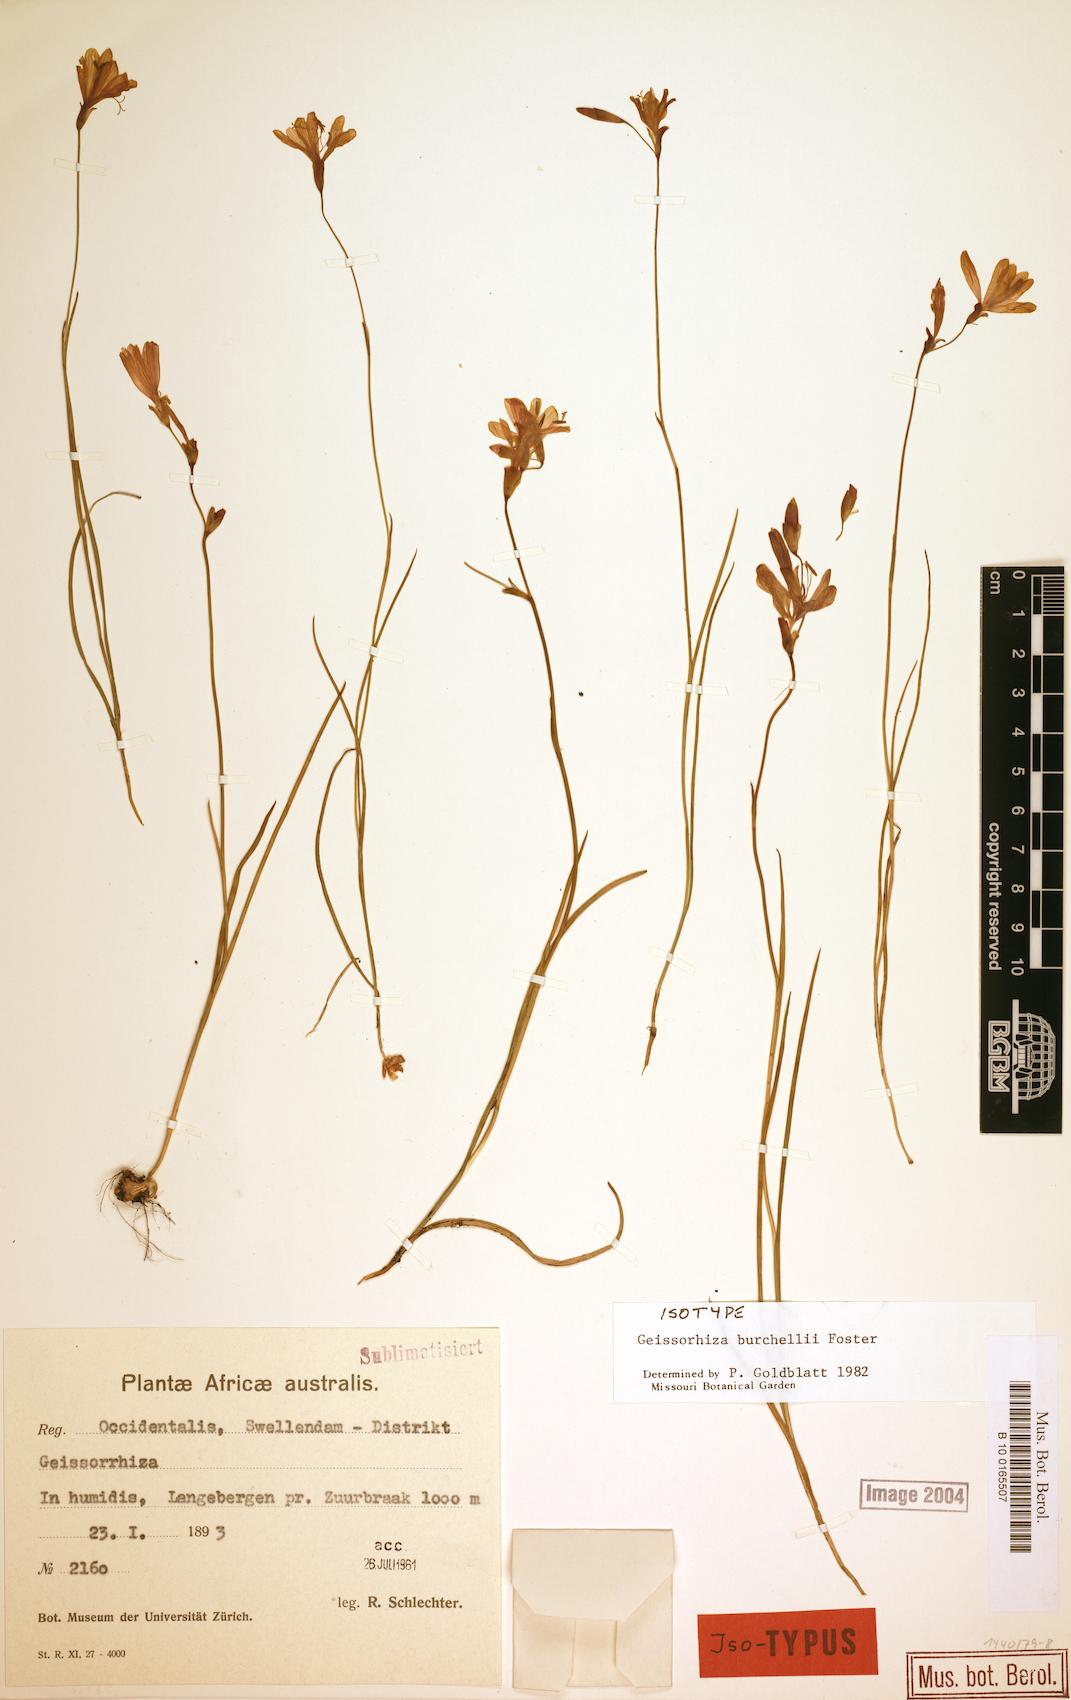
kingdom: Plantae
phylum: Tracheophyta
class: Liliopsida
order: Asparagales
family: Iridaceae
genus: Geissorhiza
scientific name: Geissorhiza burchellii
